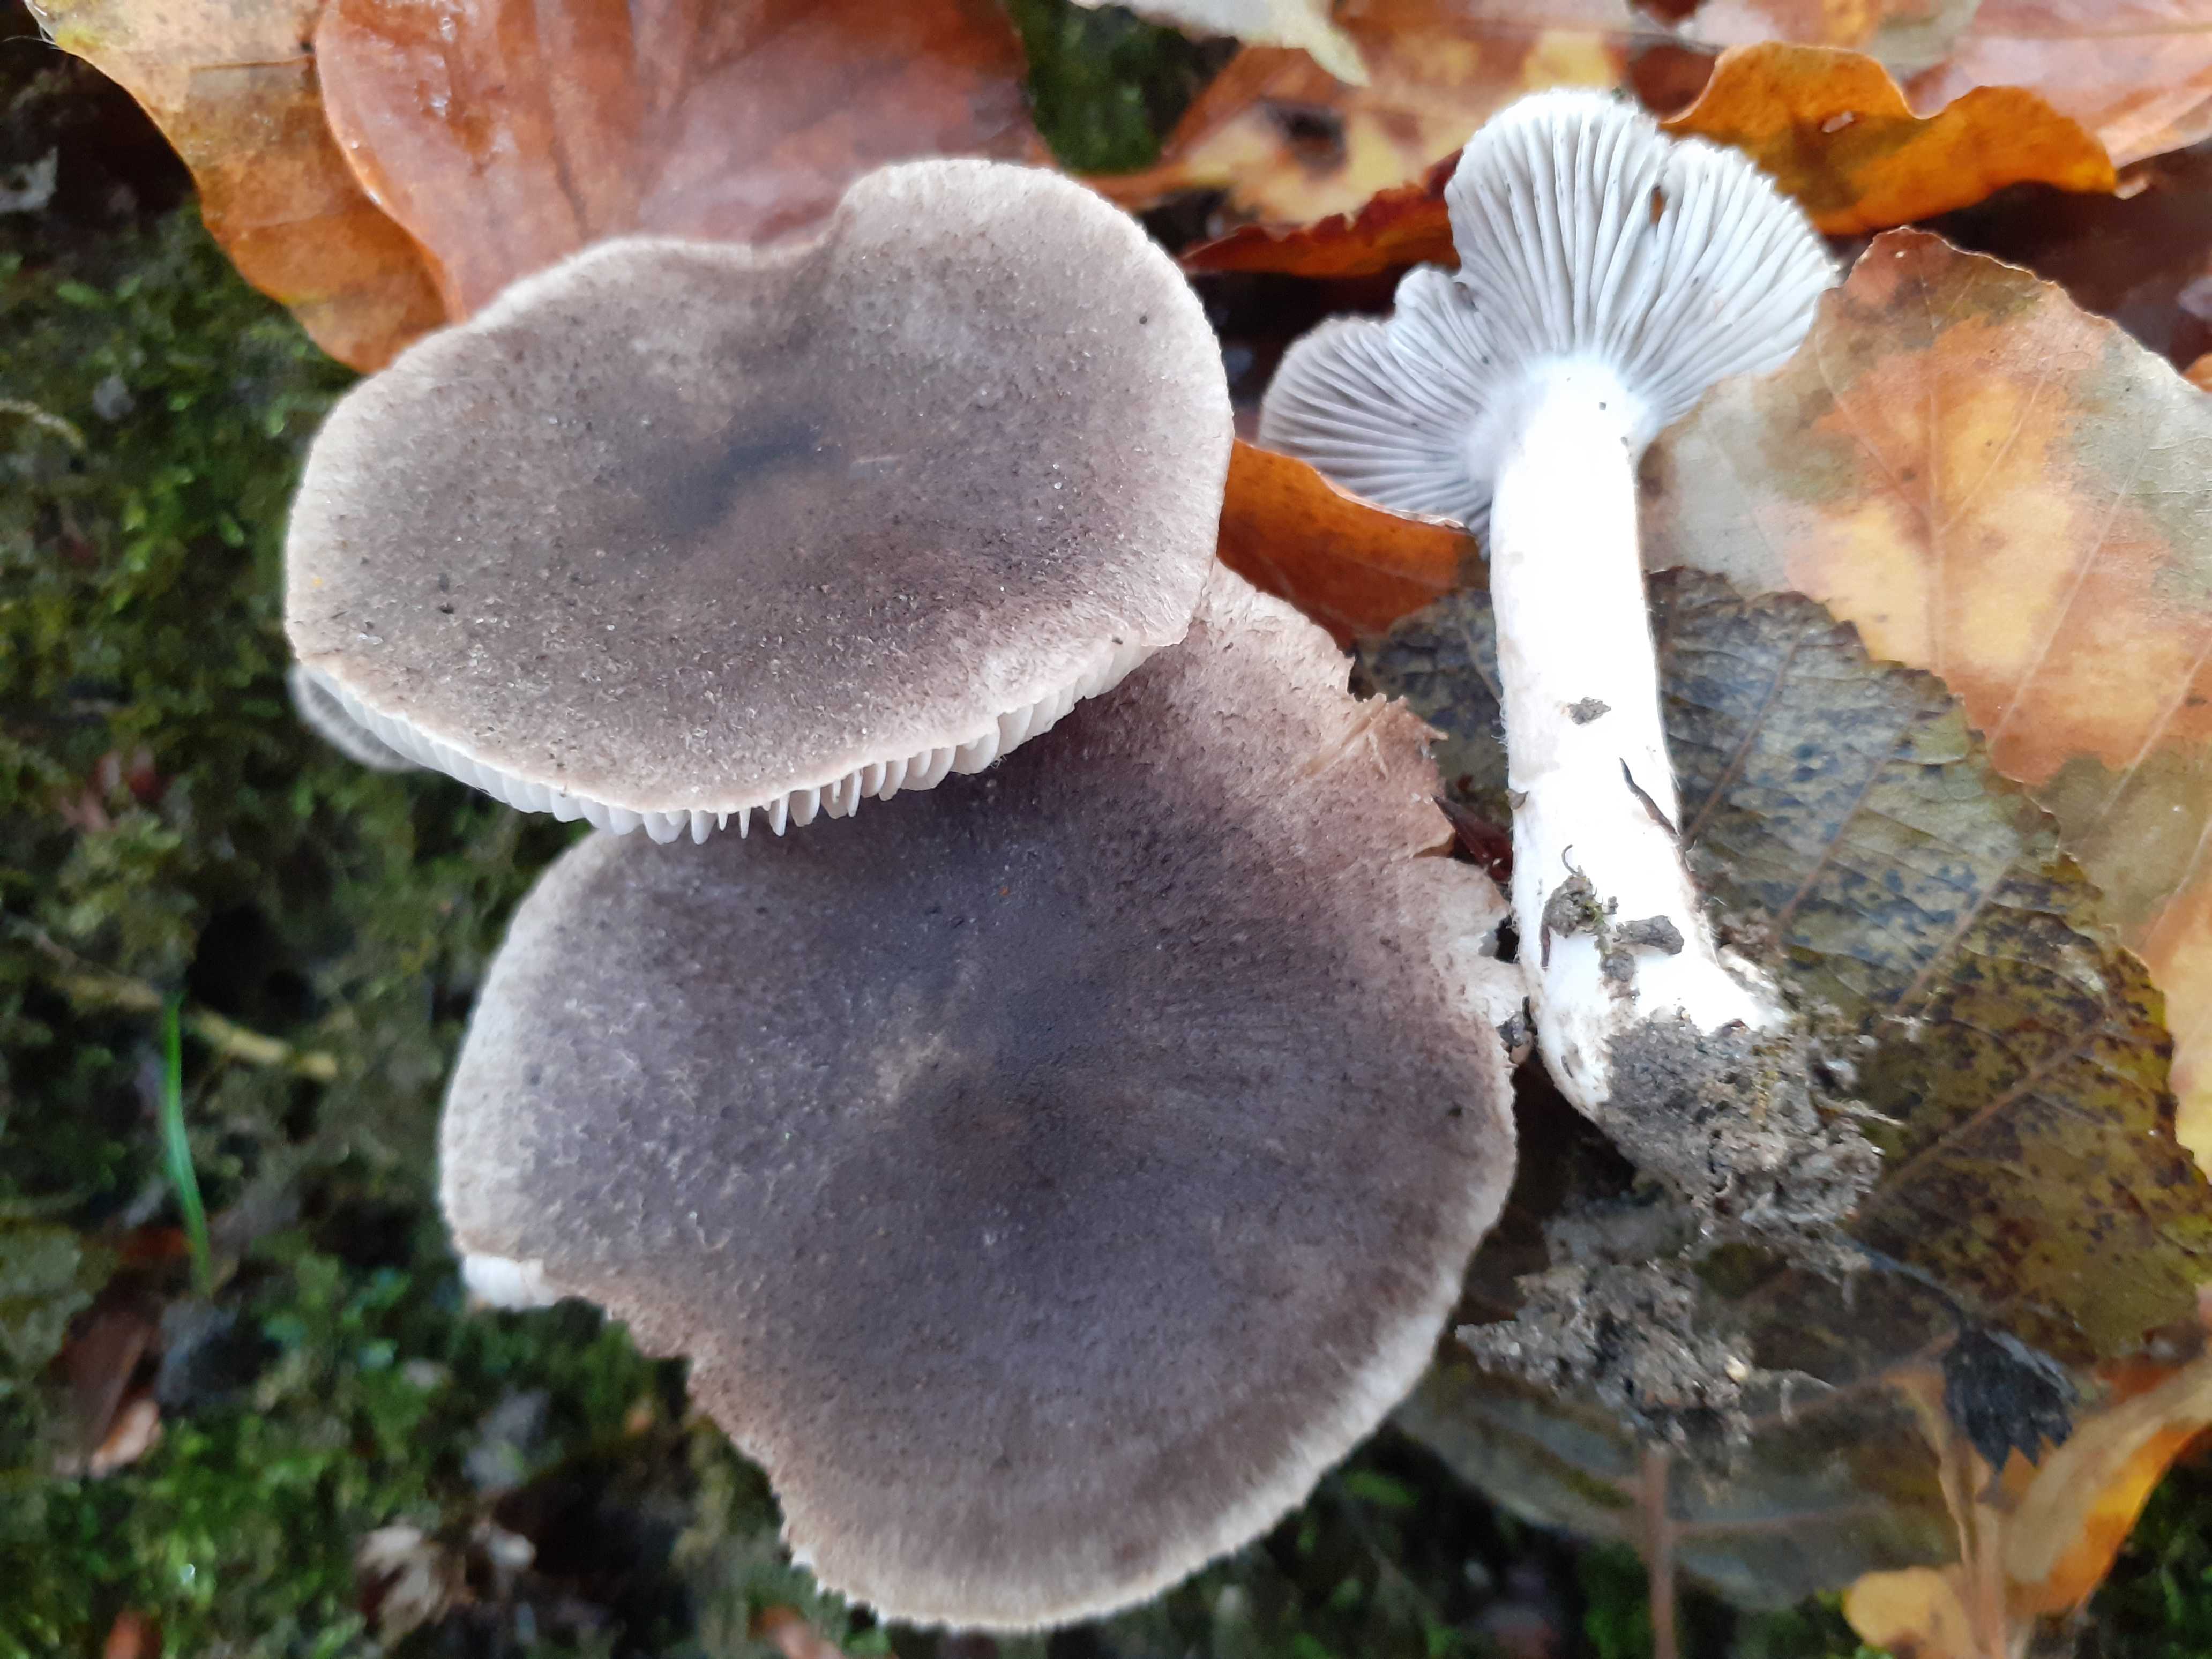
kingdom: Fungi
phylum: Basidiomycota
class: Agaricomycetes
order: Agaricales
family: Tricholomataceae
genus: Tricholoma
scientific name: Tricholoma terreum
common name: jordfarvet ridderhat
